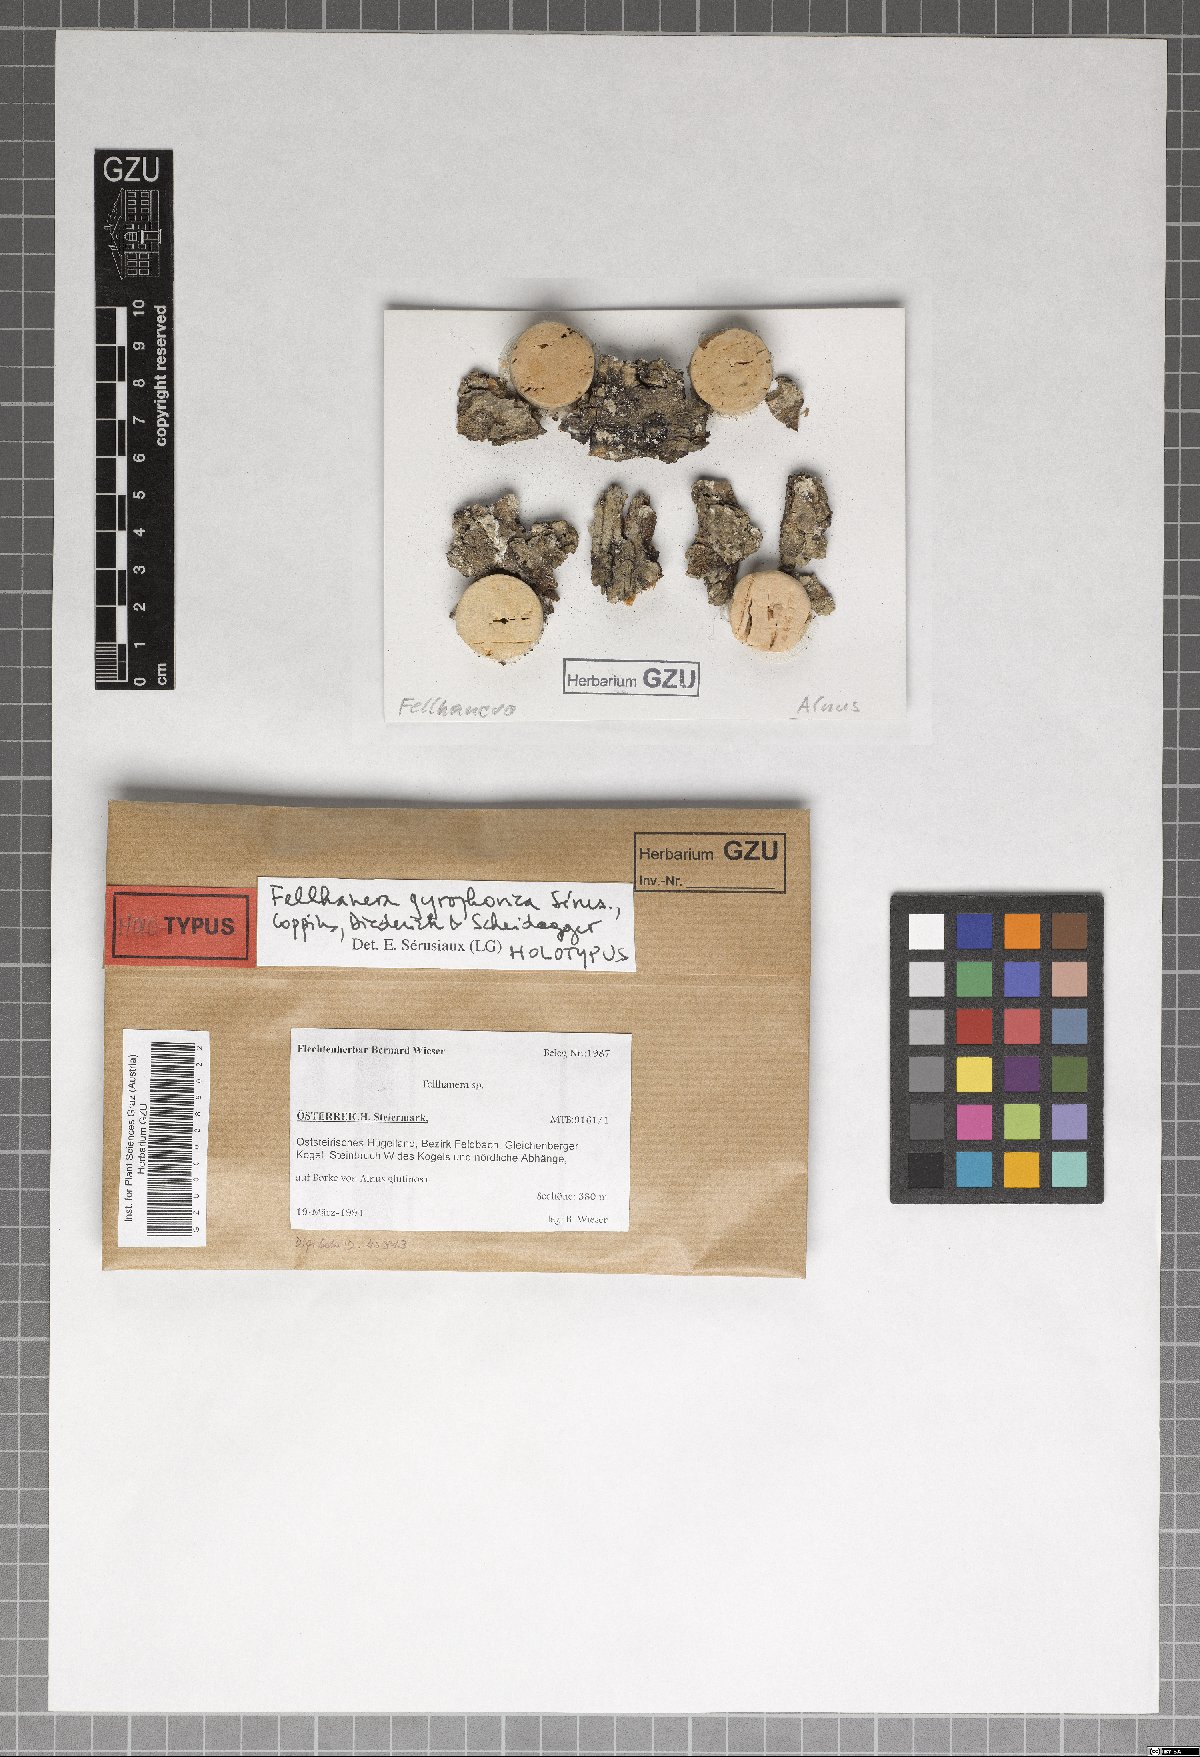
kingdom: Fungi
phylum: Ascomycota
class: Lecanoromycetes
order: Lecanorales
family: Byssolomataceae
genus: Fellhanera
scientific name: Fellhanera gyrophorica
